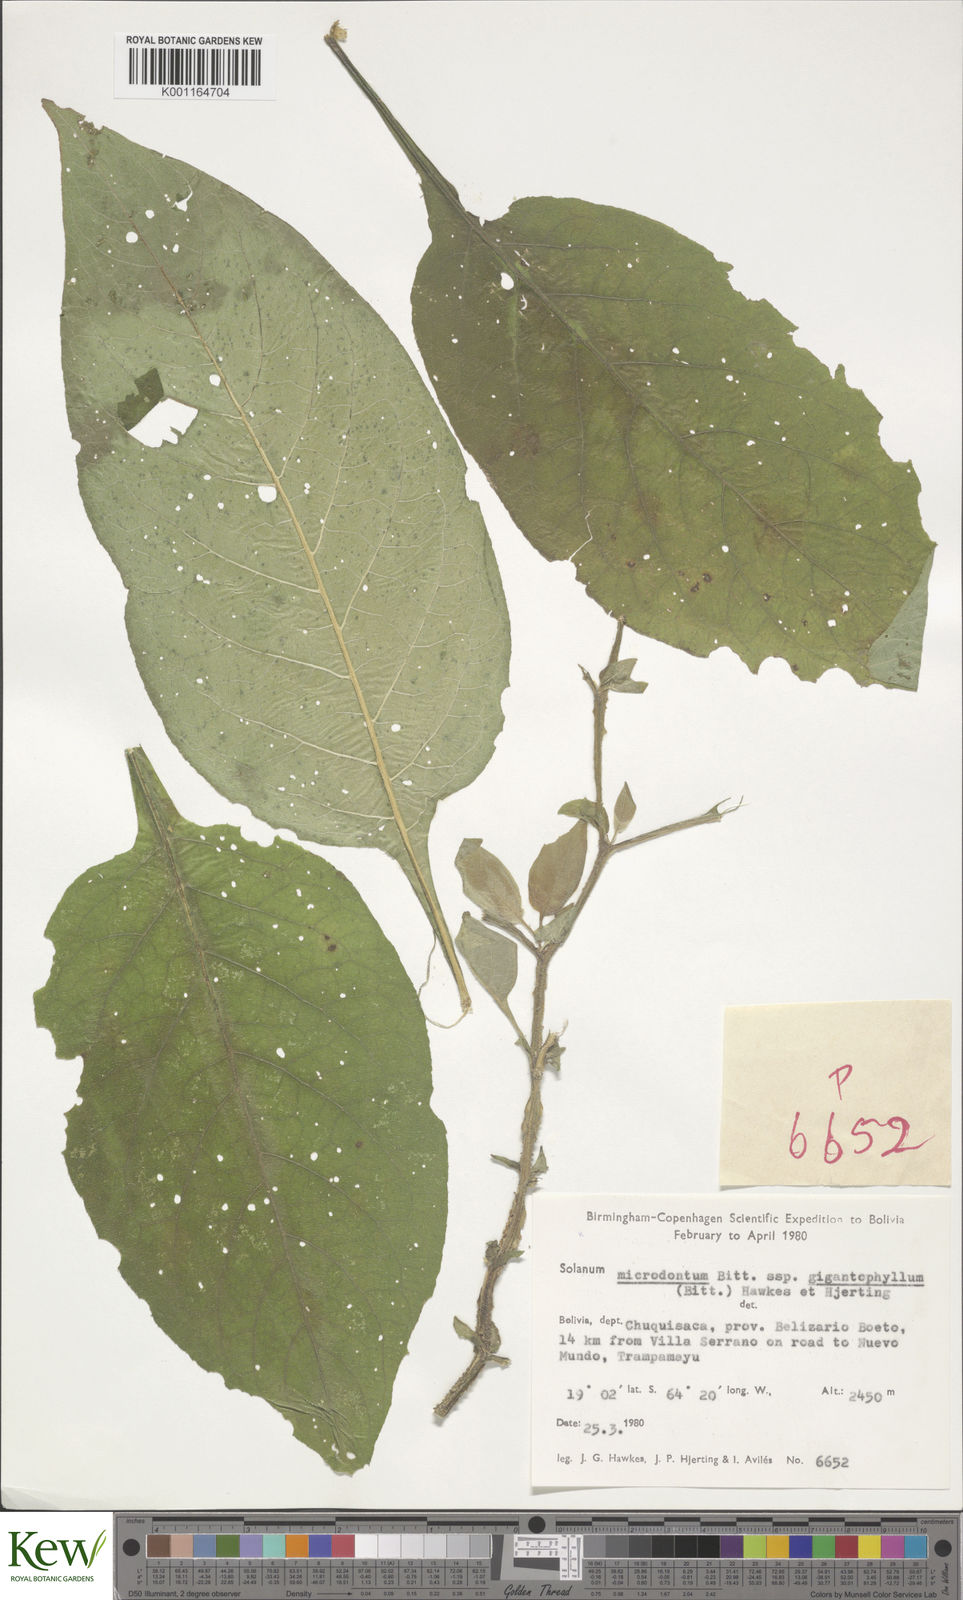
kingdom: Plantae
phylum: Tracheophyta
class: Magnoliopsida
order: Solanales
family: Solanaceae
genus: Solanum
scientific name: Solanum microdontum
